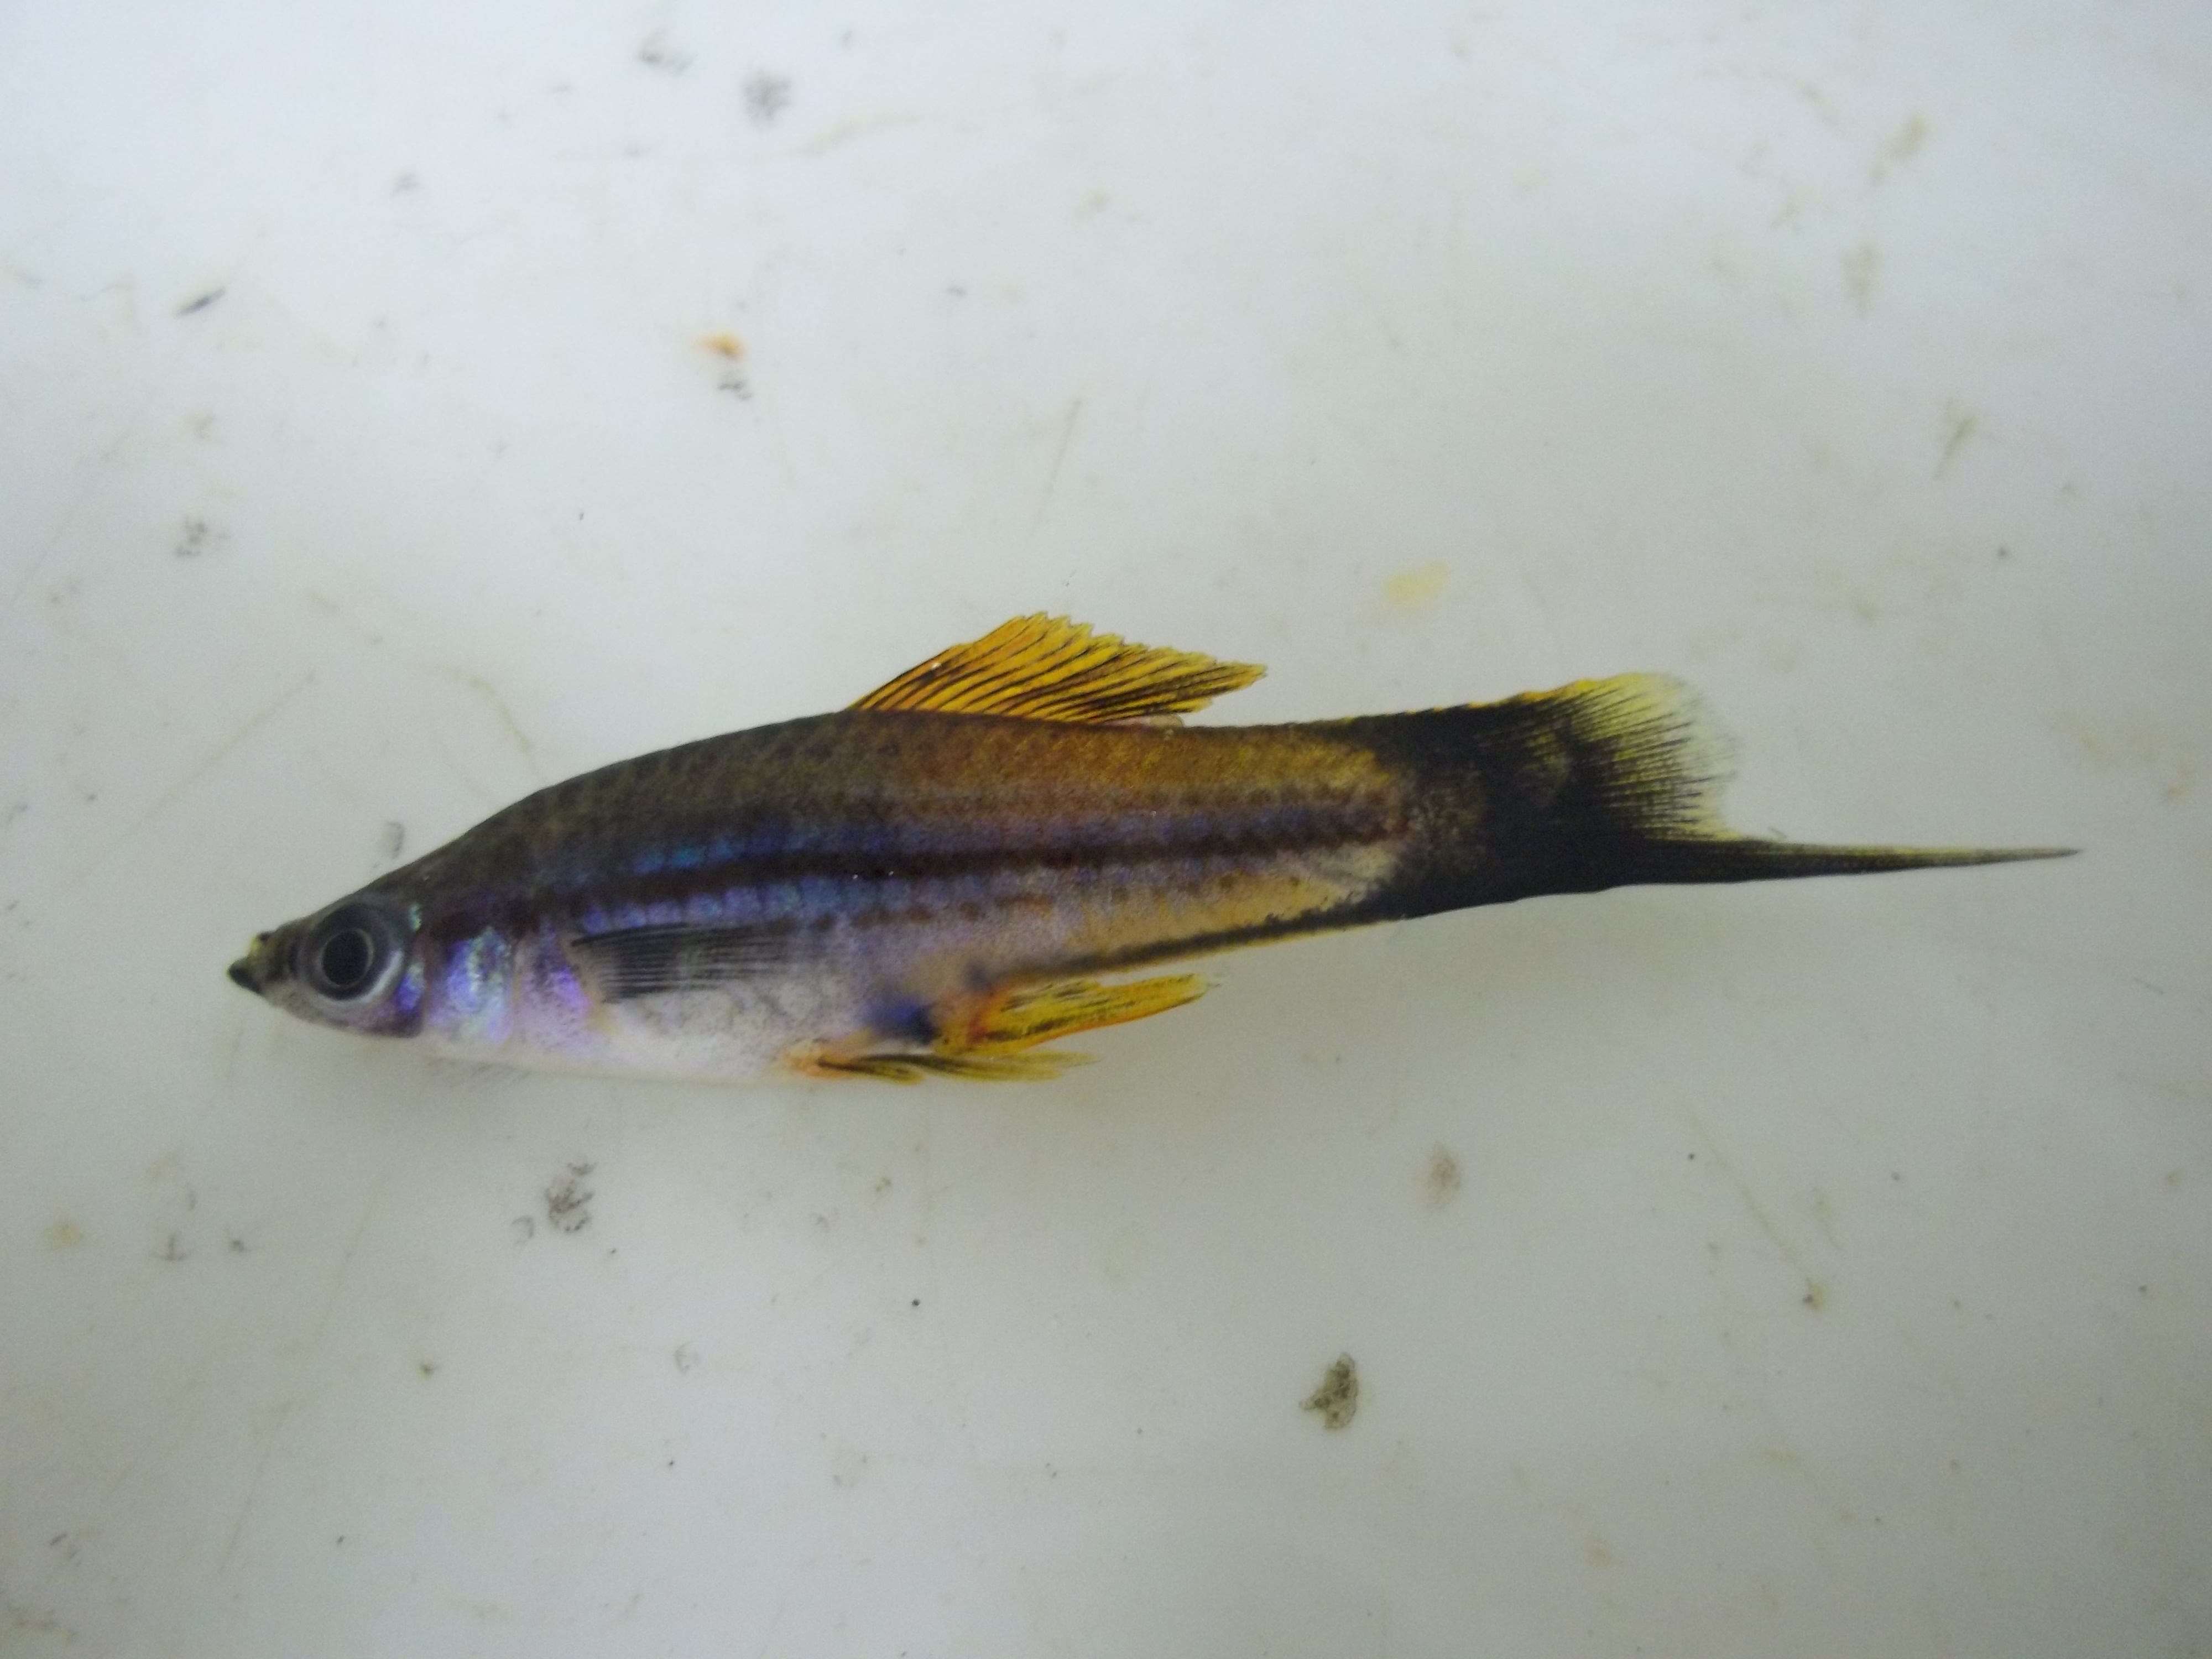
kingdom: Animalia
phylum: Chordata
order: Cyprinodontiformes
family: Poeciliidae
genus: Xiphophorus
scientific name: Xiphophorus hellerii
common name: Green swordtail
